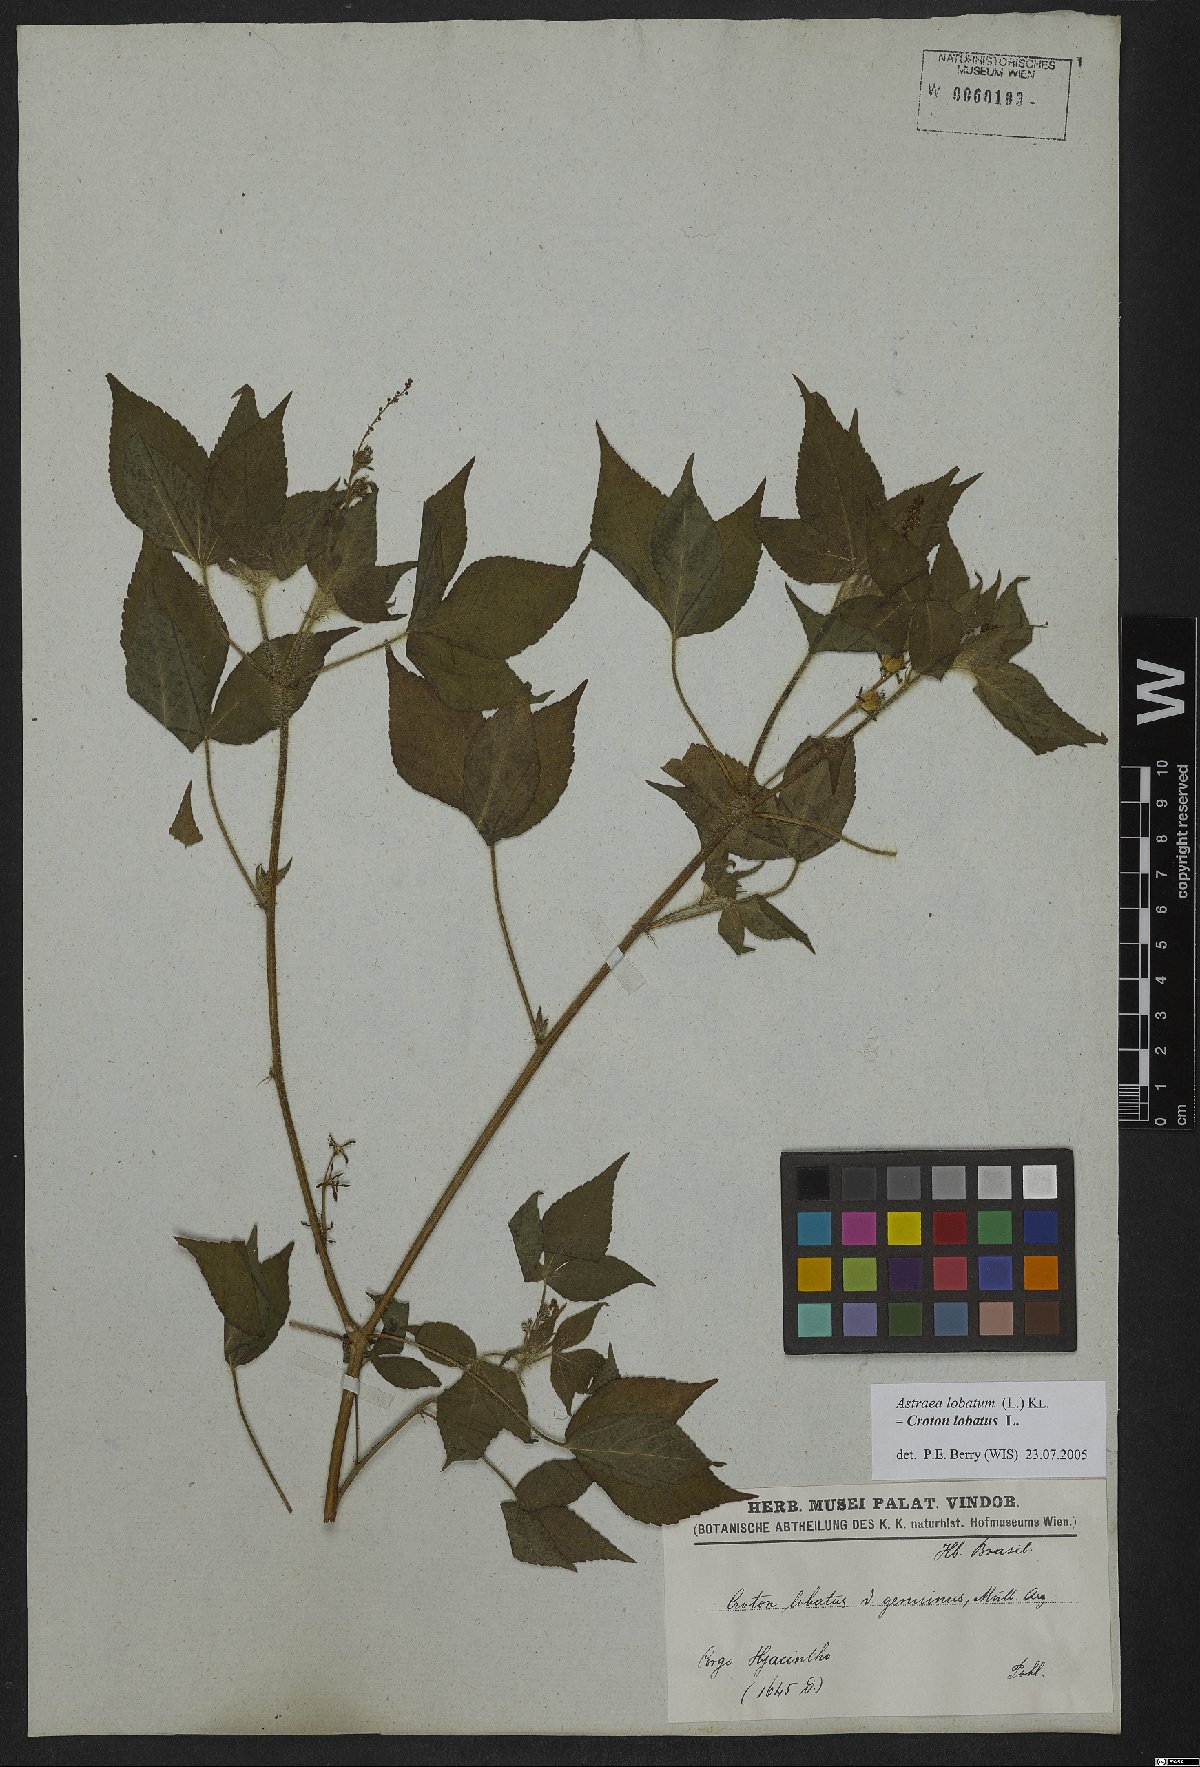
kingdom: Plantae
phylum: Tracheophyta
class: Magnoliopsida
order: Malpighiales
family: Euphorbiaceae
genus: Croton
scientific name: Croton lobatus
